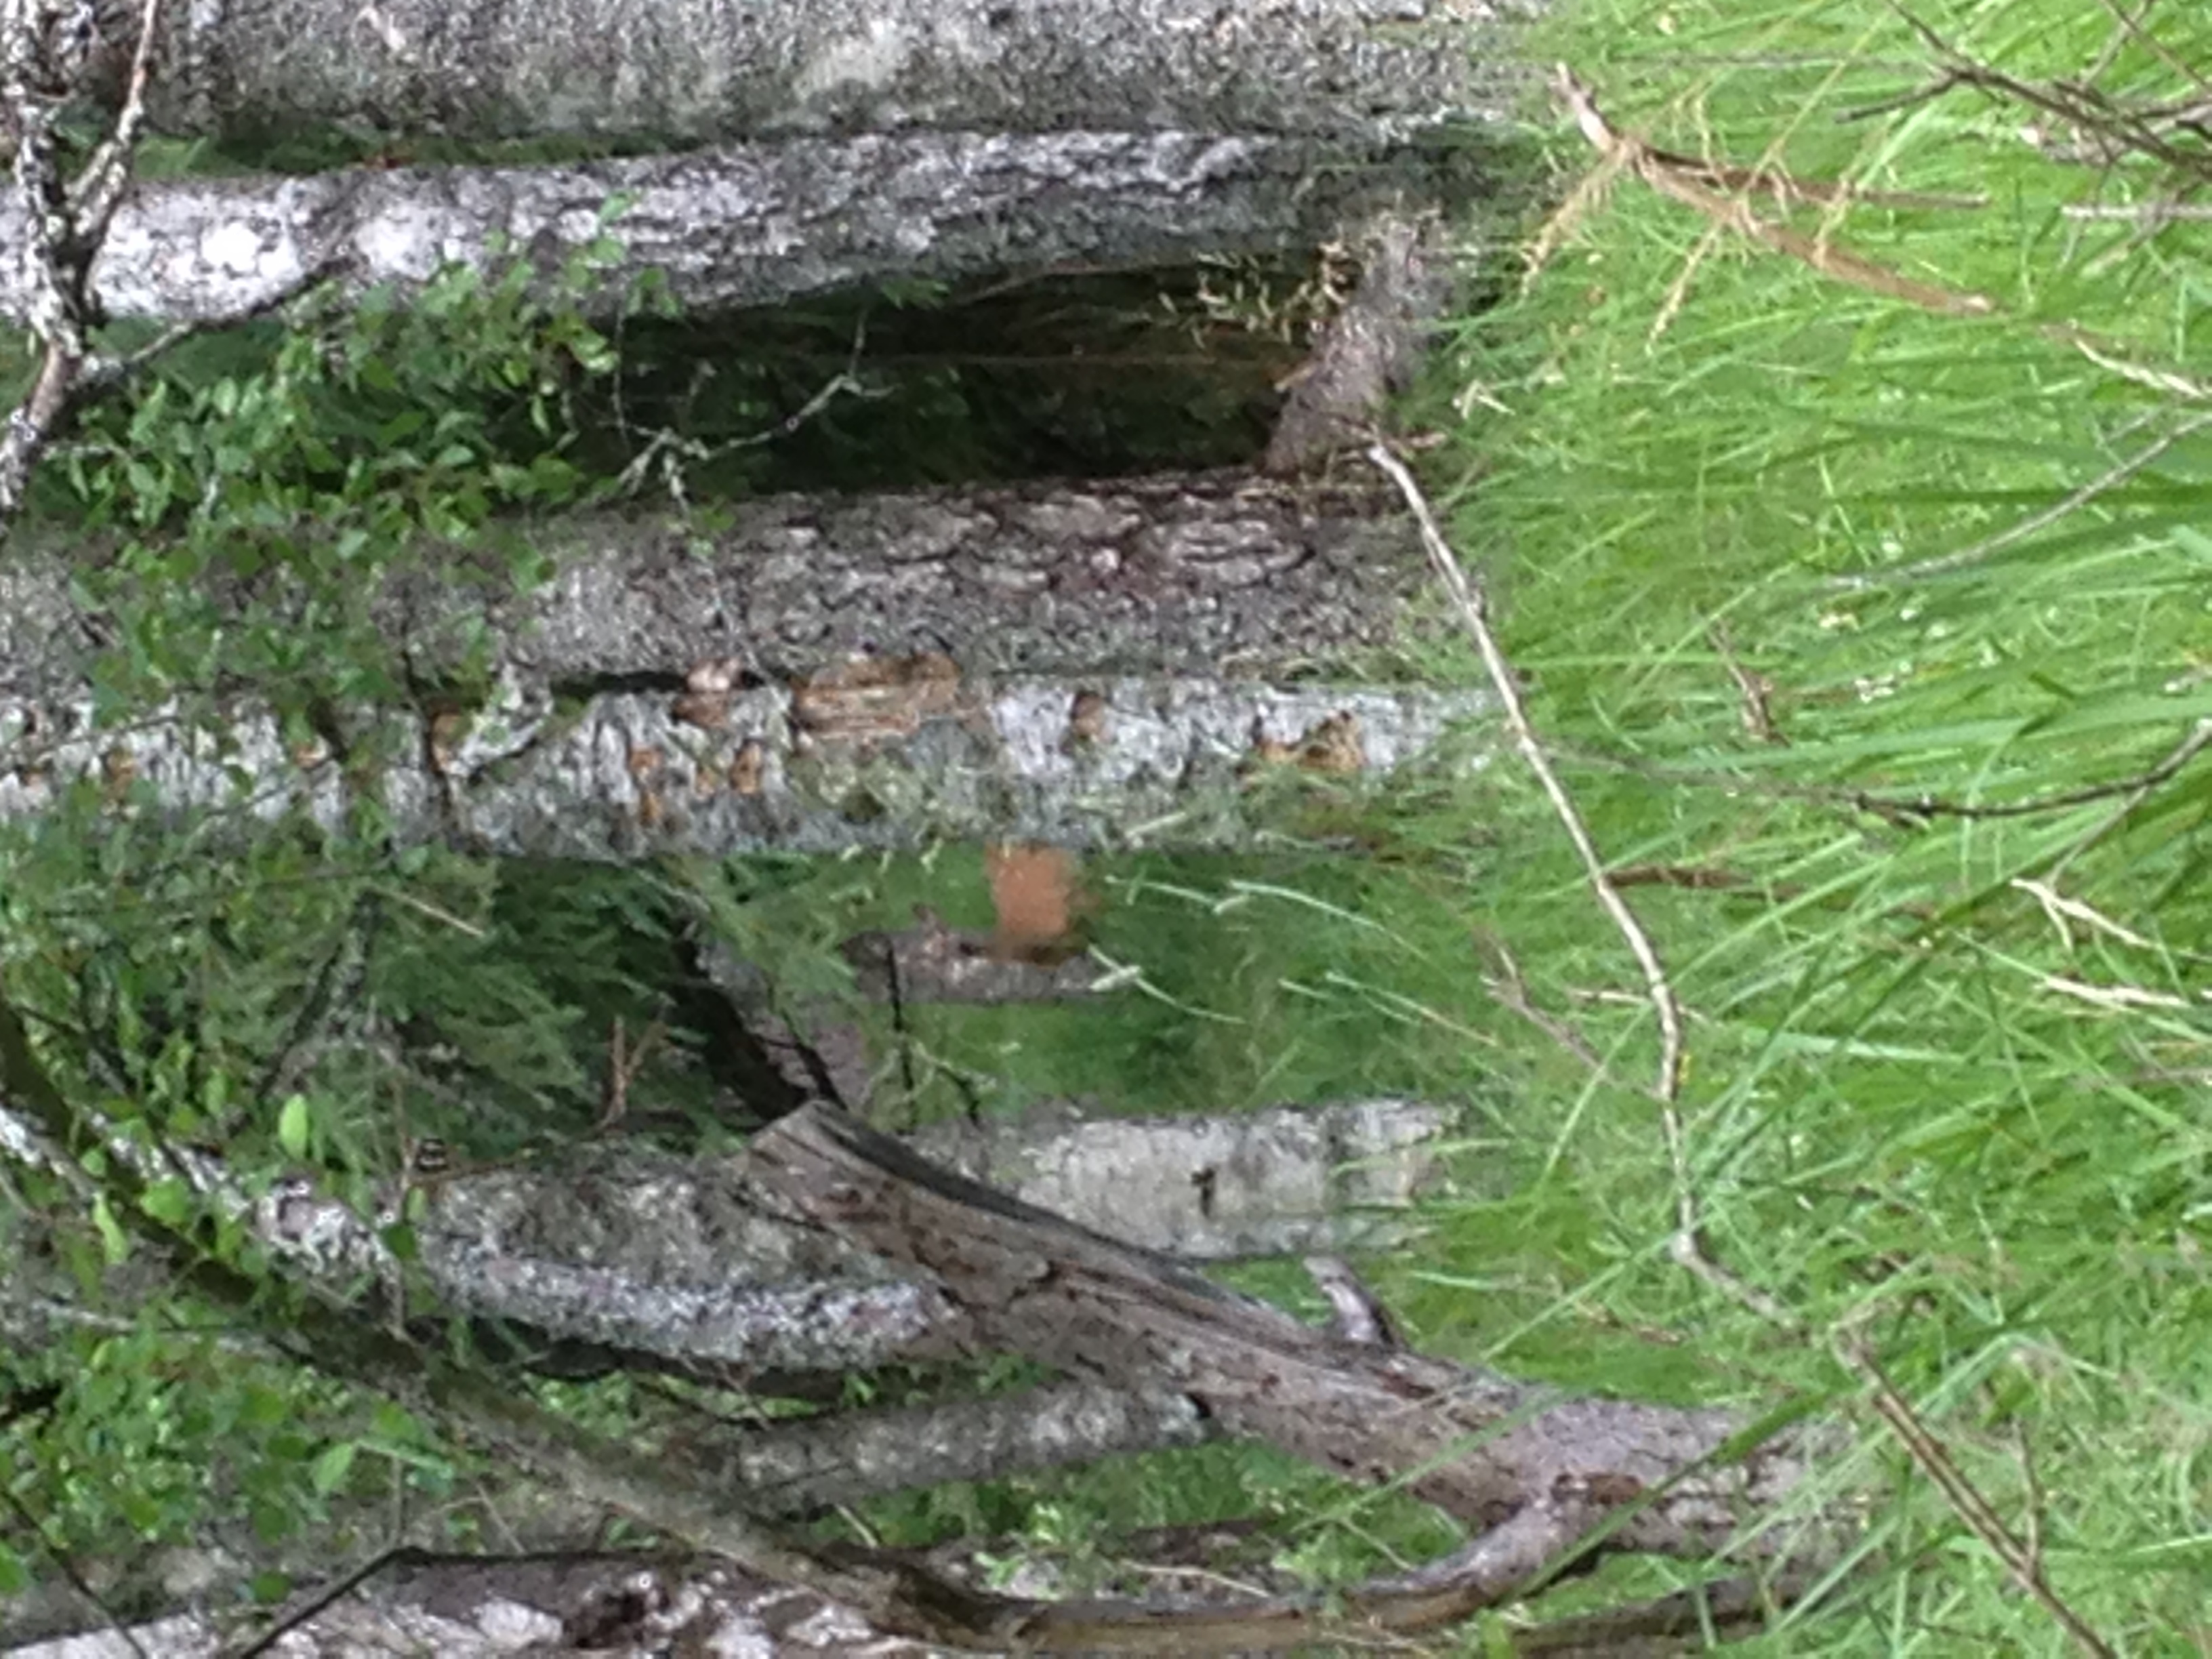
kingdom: Animalia
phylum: Chordata
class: Mammalia
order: Artiodactyla
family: Cervidae
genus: Odocoileus
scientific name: Odocoileus virginianus
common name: White-tailed deer
